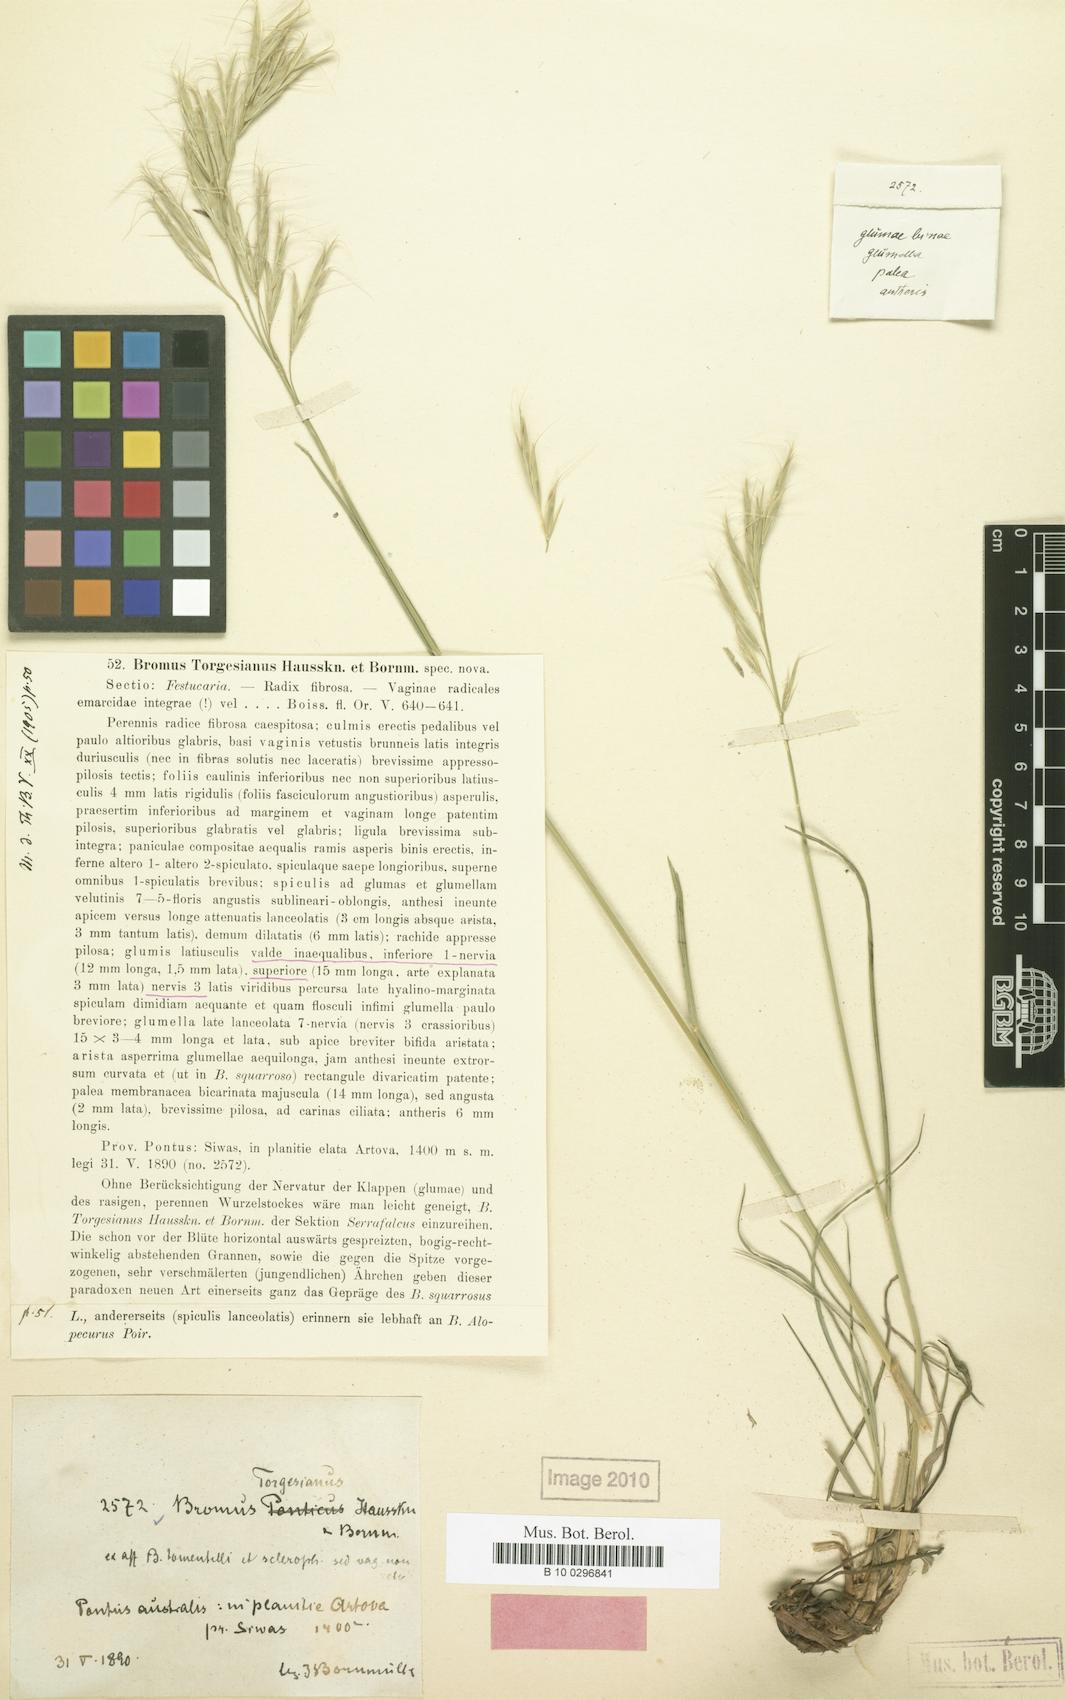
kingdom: Plantae
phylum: Tracheophyta
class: Liliopsida
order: Poales
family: Poaceae
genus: Bromus
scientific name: Bromus torgesianus
